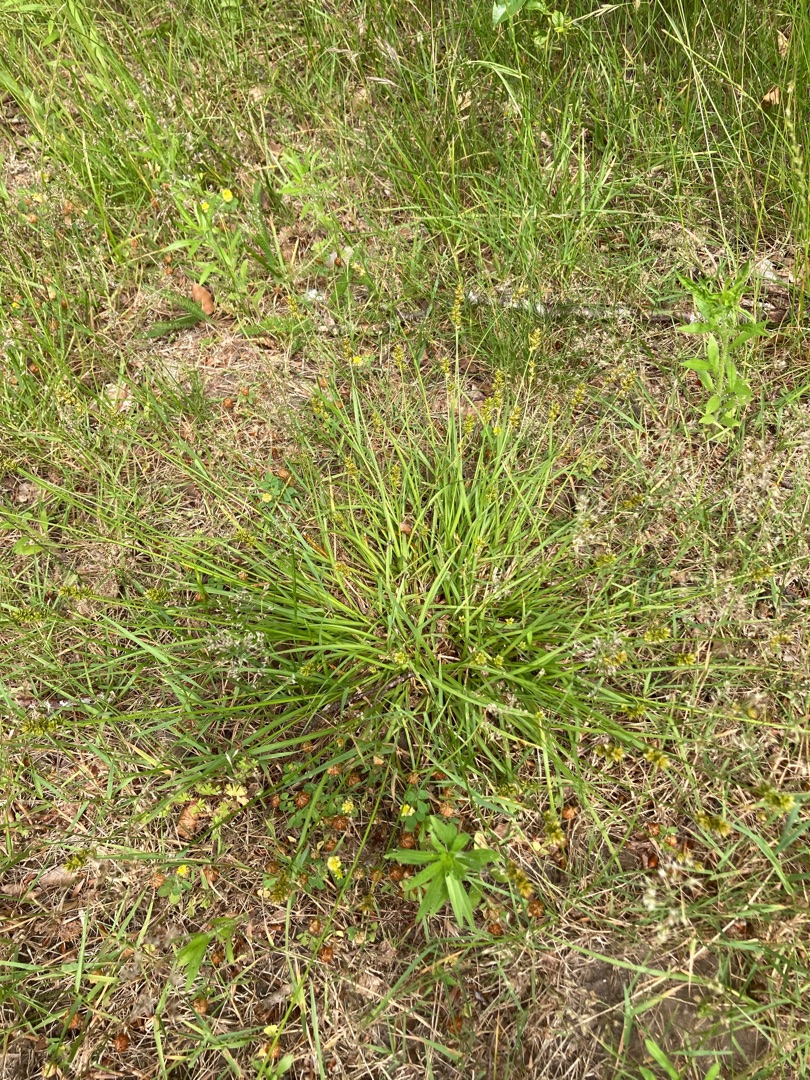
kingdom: Plantae
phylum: Tracheophyta
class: Liliopsida
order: Poales
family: Cyperaceae
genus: Carex
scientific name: Carex pairae
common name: Pigget star
